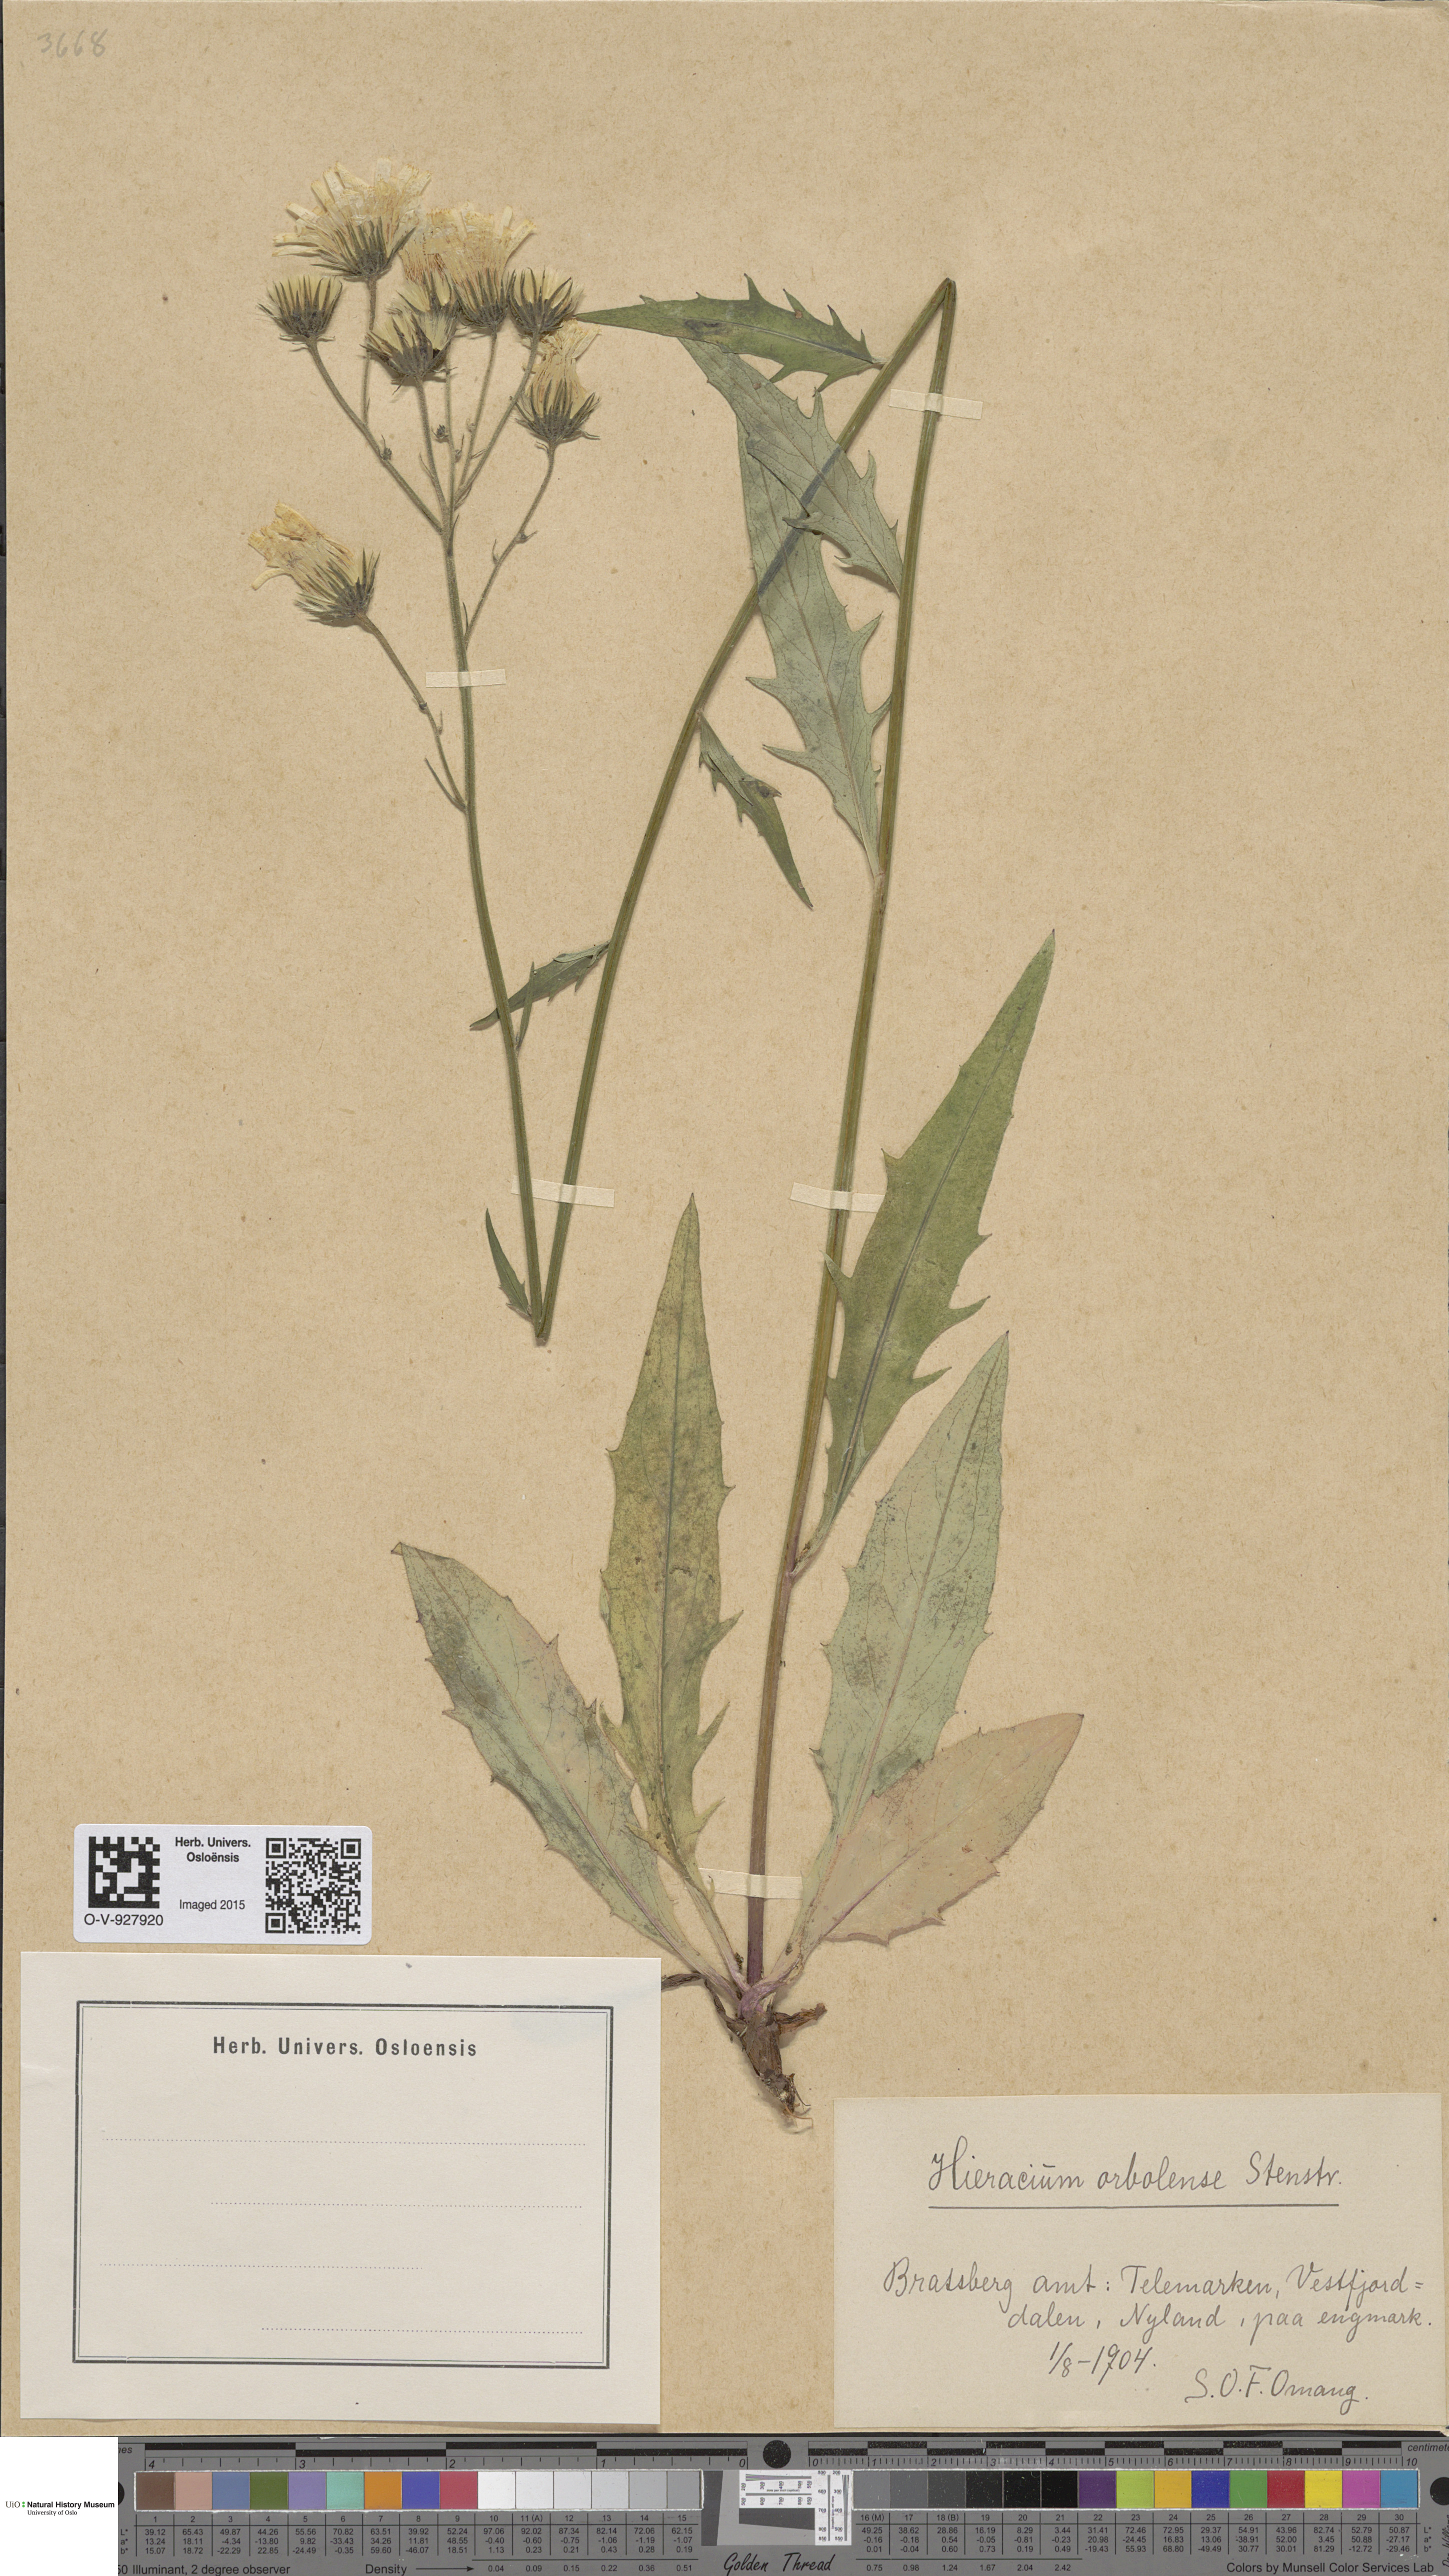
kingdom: Plantae
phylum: Tracheophyta
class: Magnoliopsida
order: Asterales
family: Asteraceae
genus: Hieracium
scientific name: Hieracium orbolense
